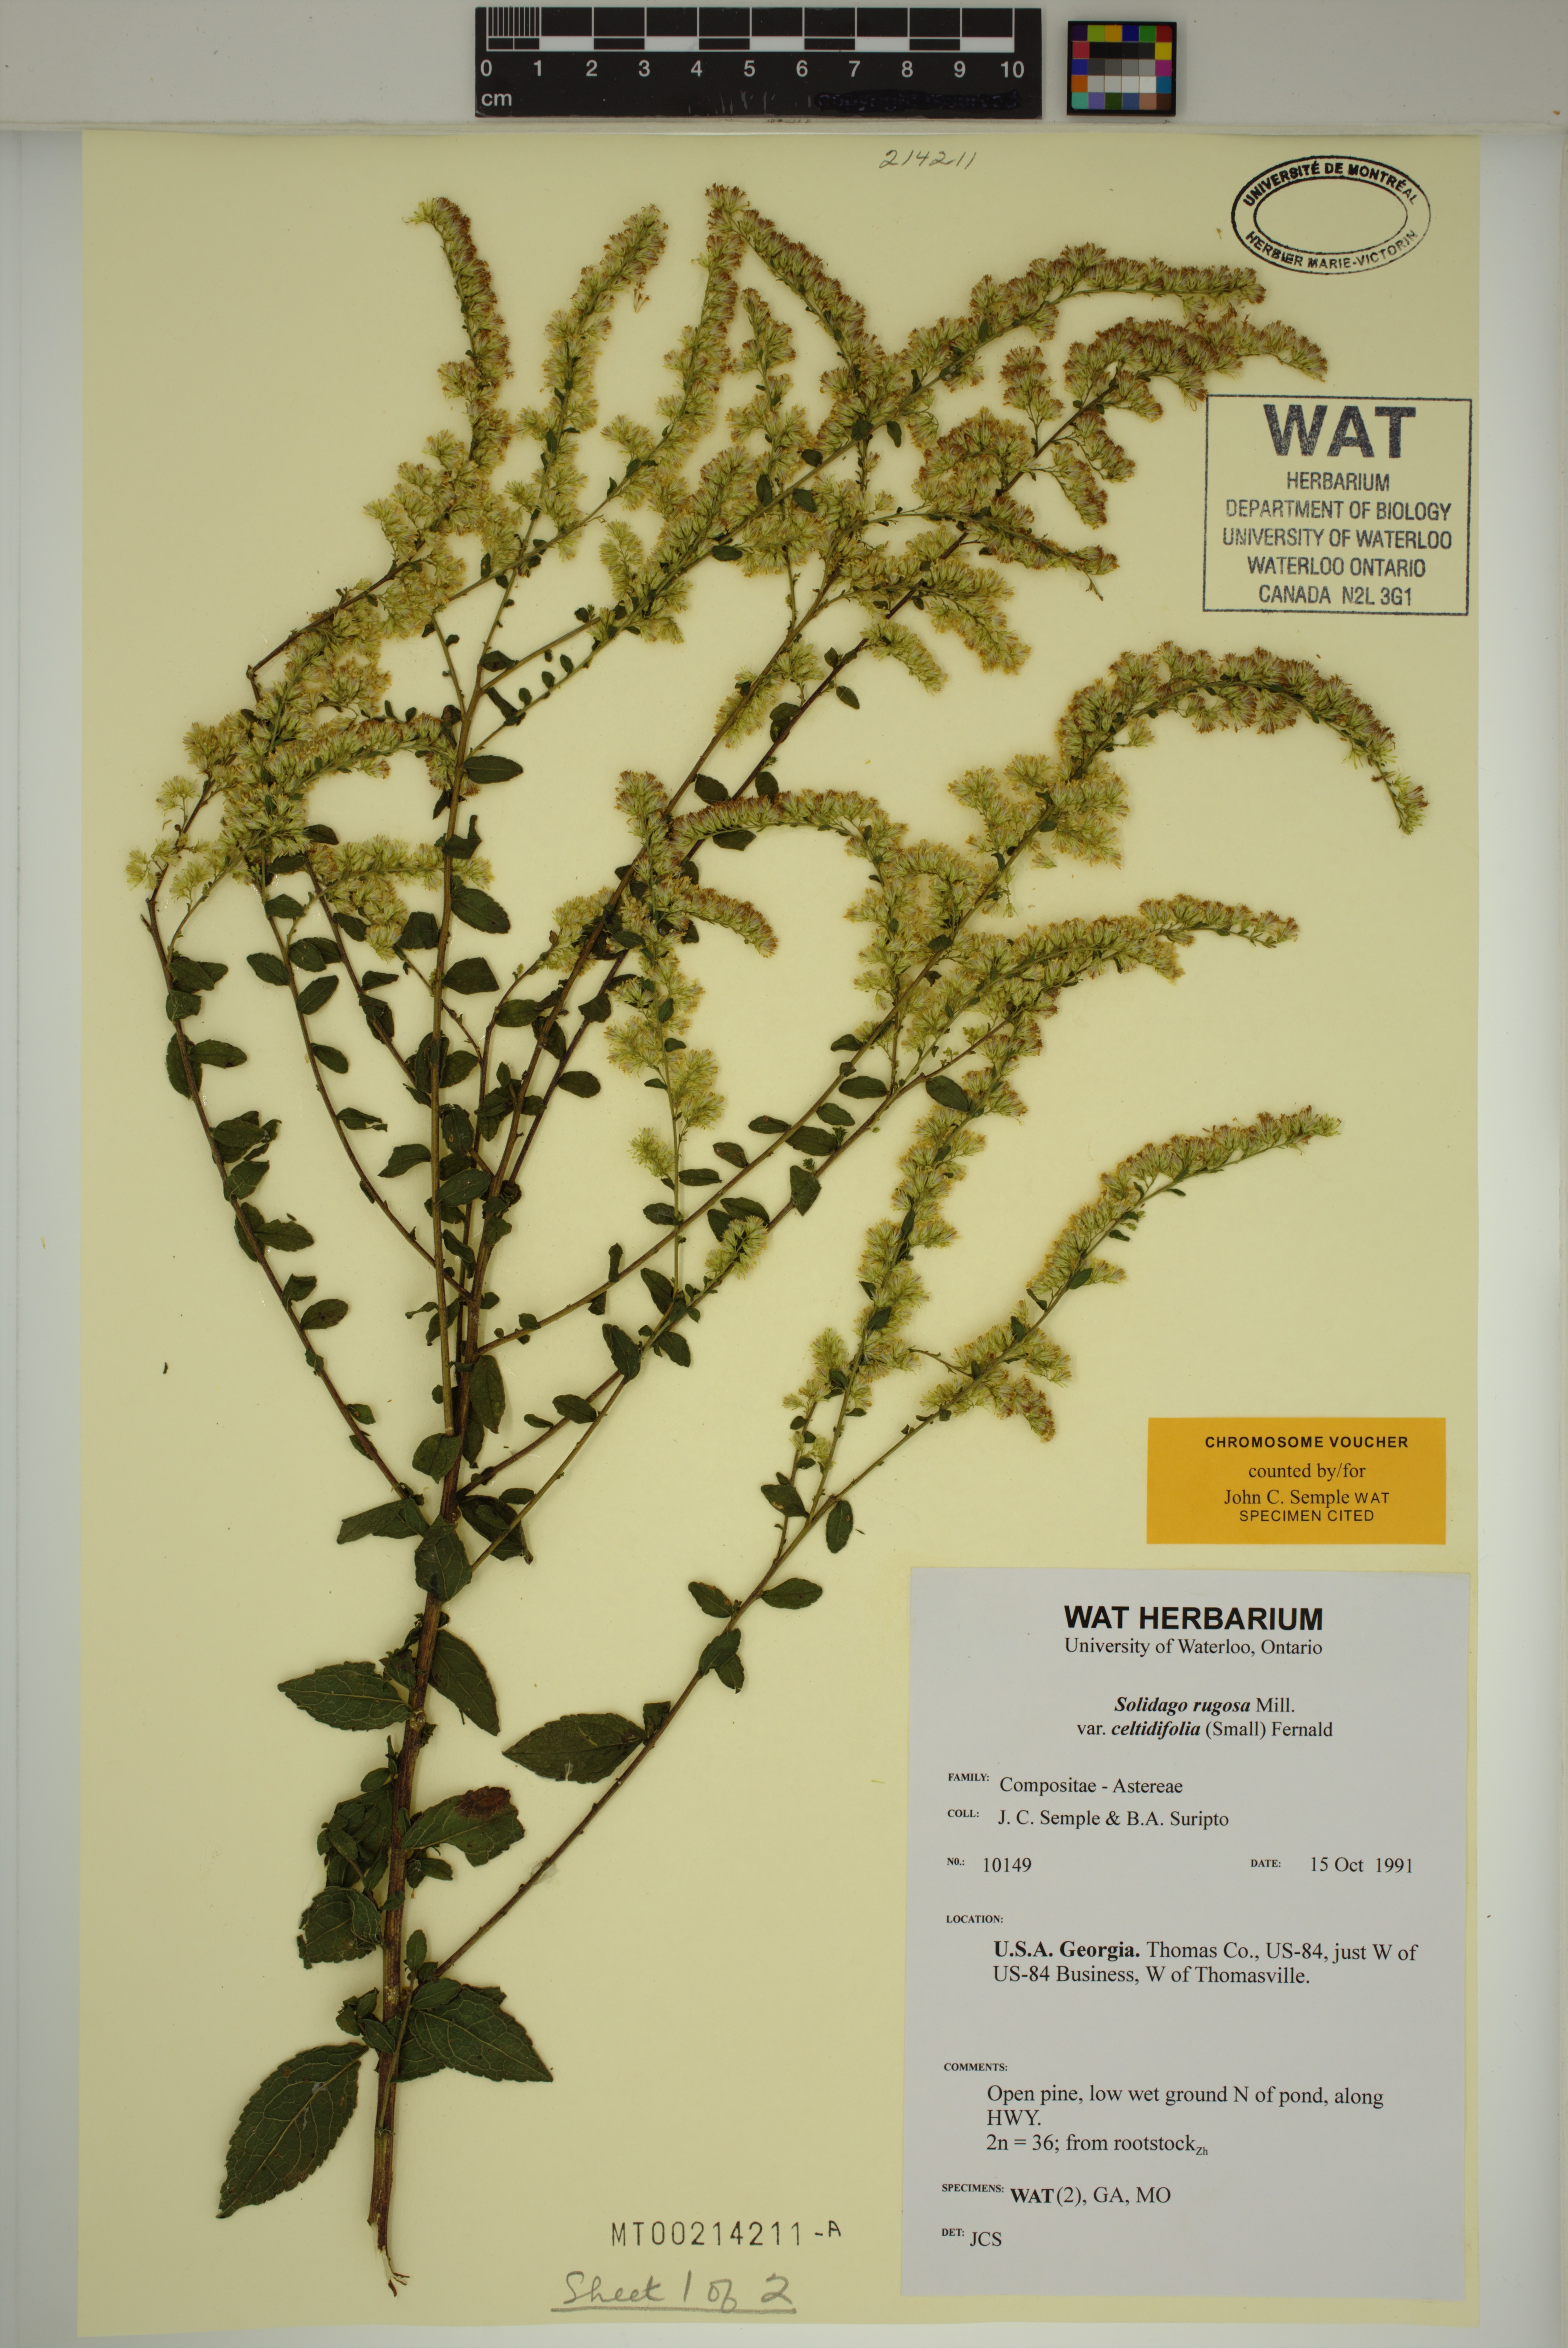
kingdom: Plantae
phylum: Tracheophyta
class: Magnoliopsida
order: Asterales
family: Asteraceae
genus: Solidago
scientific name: Solidago rugosa
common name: Rough-stemmed goldenrod
